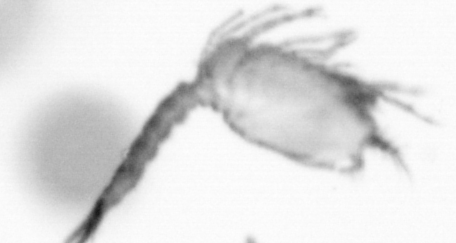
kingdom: Animalia
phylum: Arthropoda
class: Copepoda
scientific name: Copepoda
